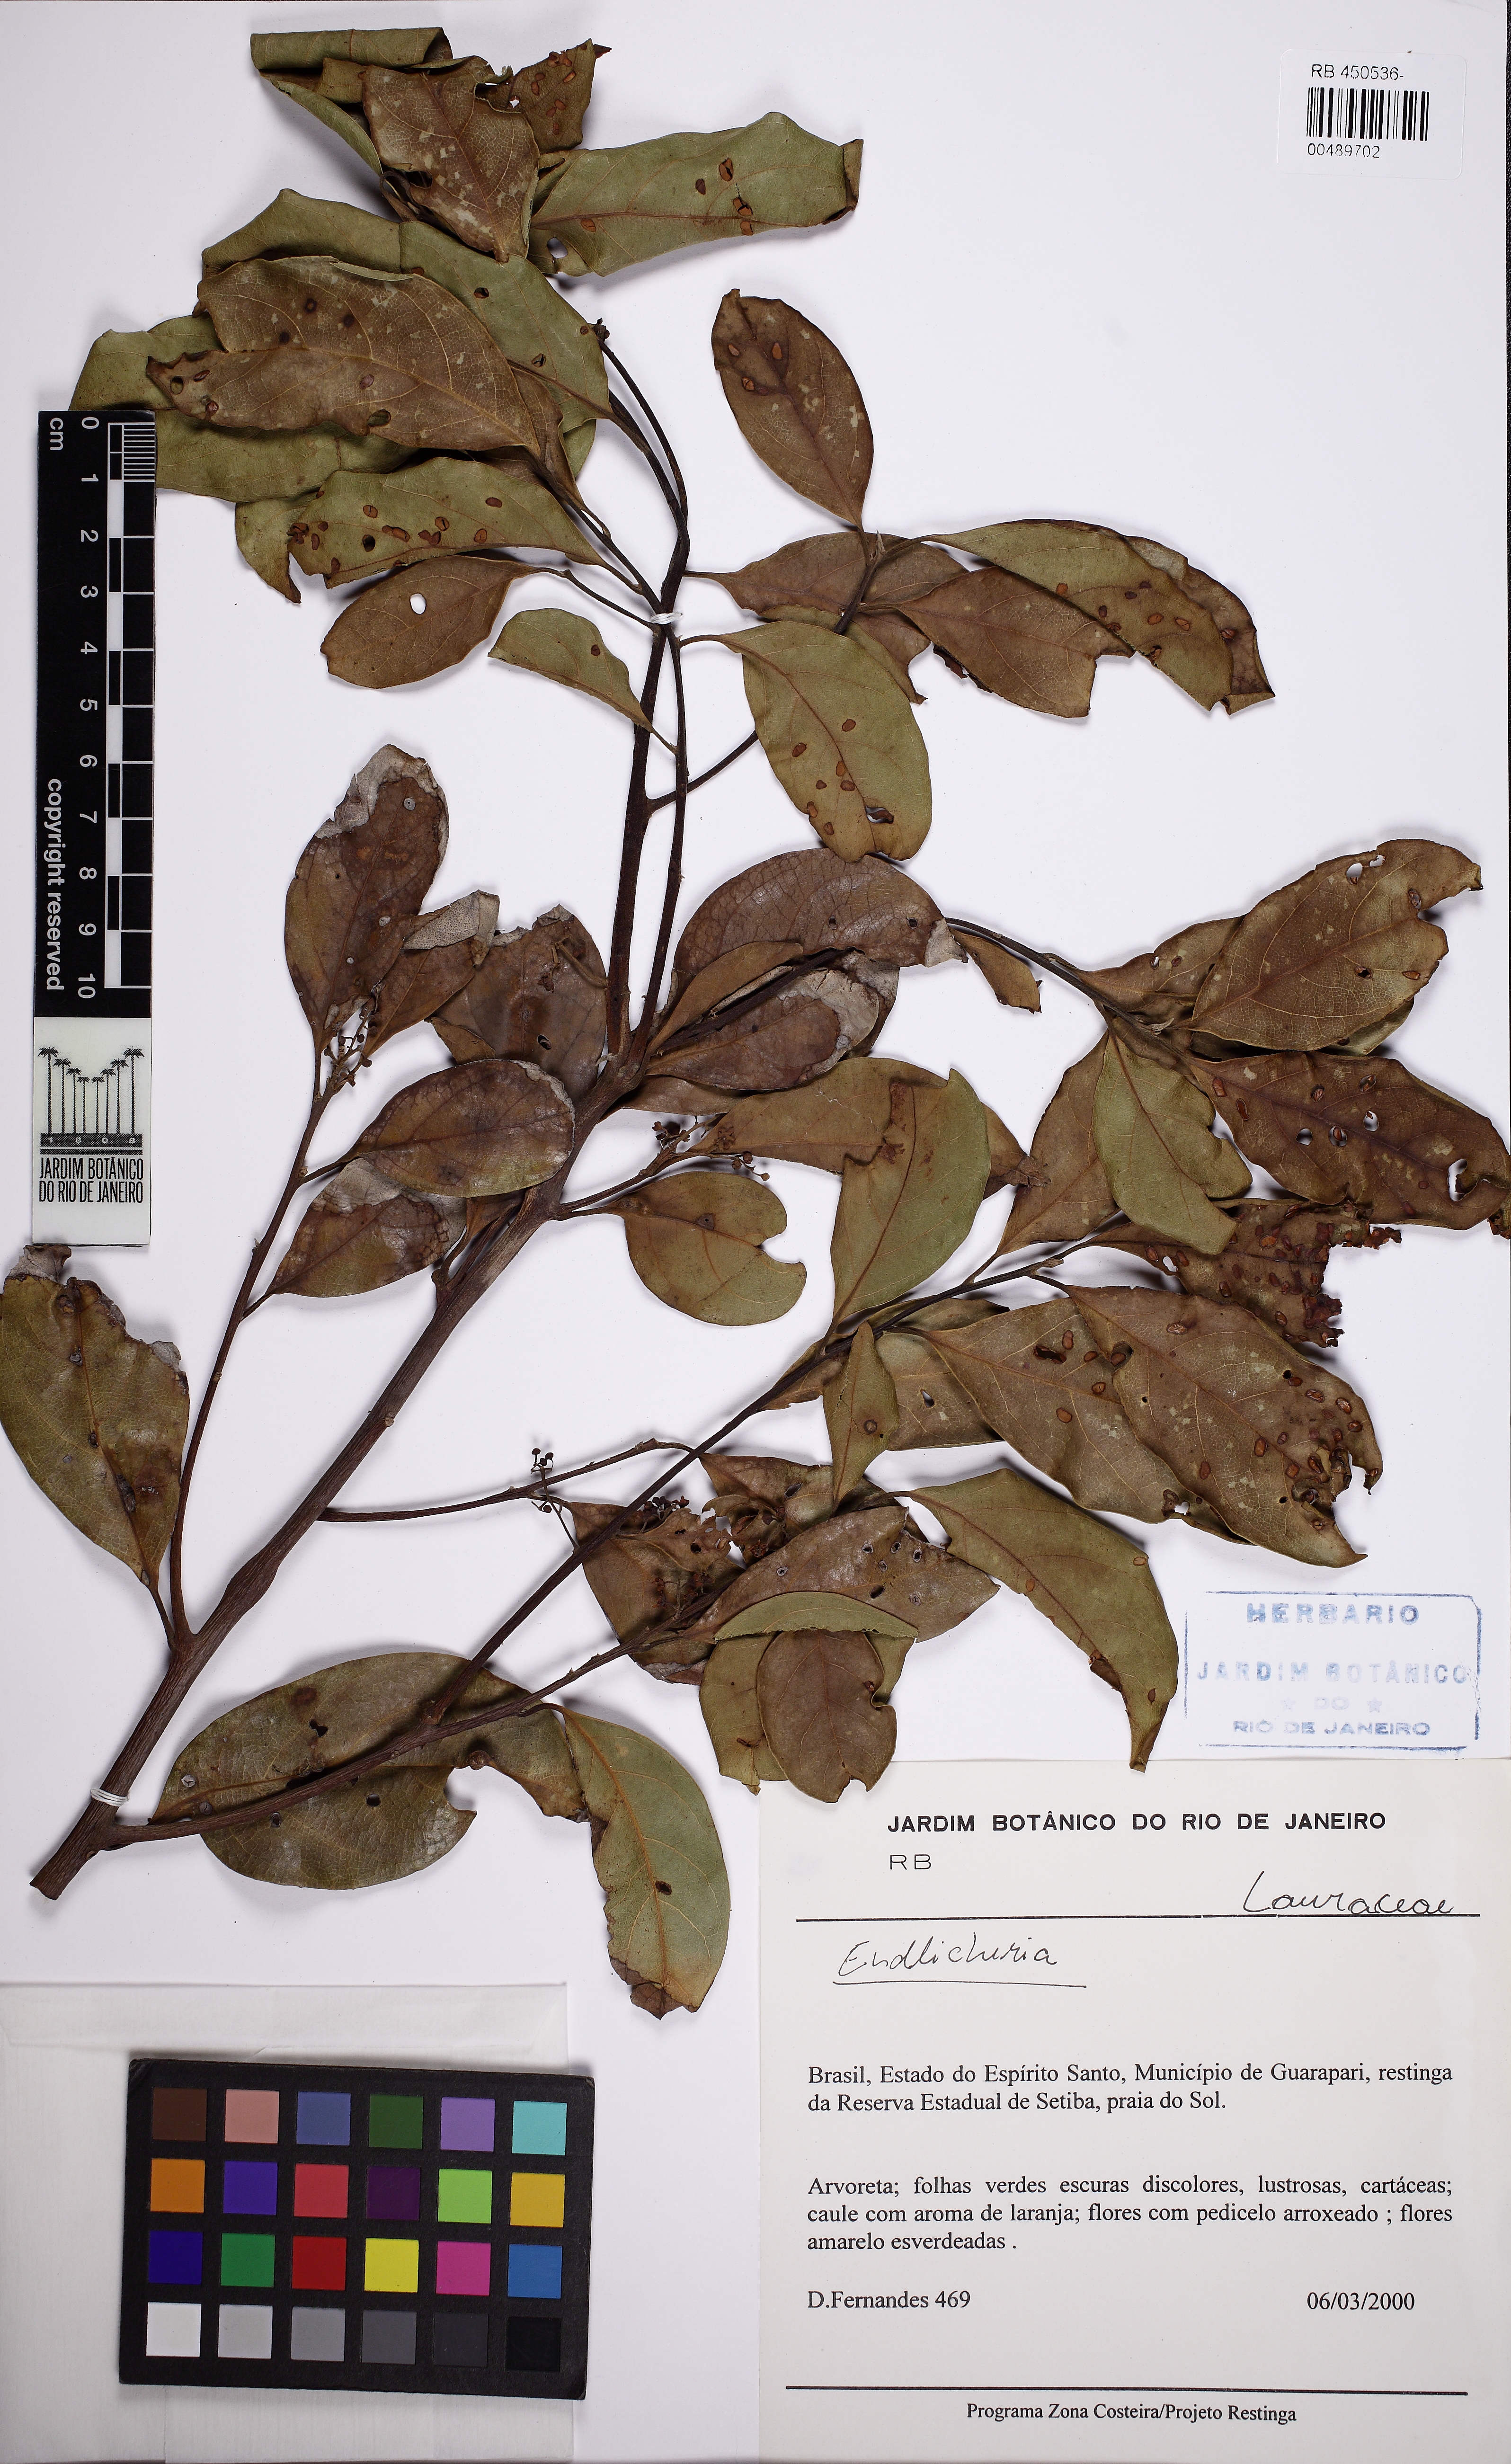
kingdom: Plantae
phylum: Tracheophyta
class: Magnoliopsida
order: Laurales
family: Lauraceae
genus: Endlicheria
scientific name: Endlicheria
